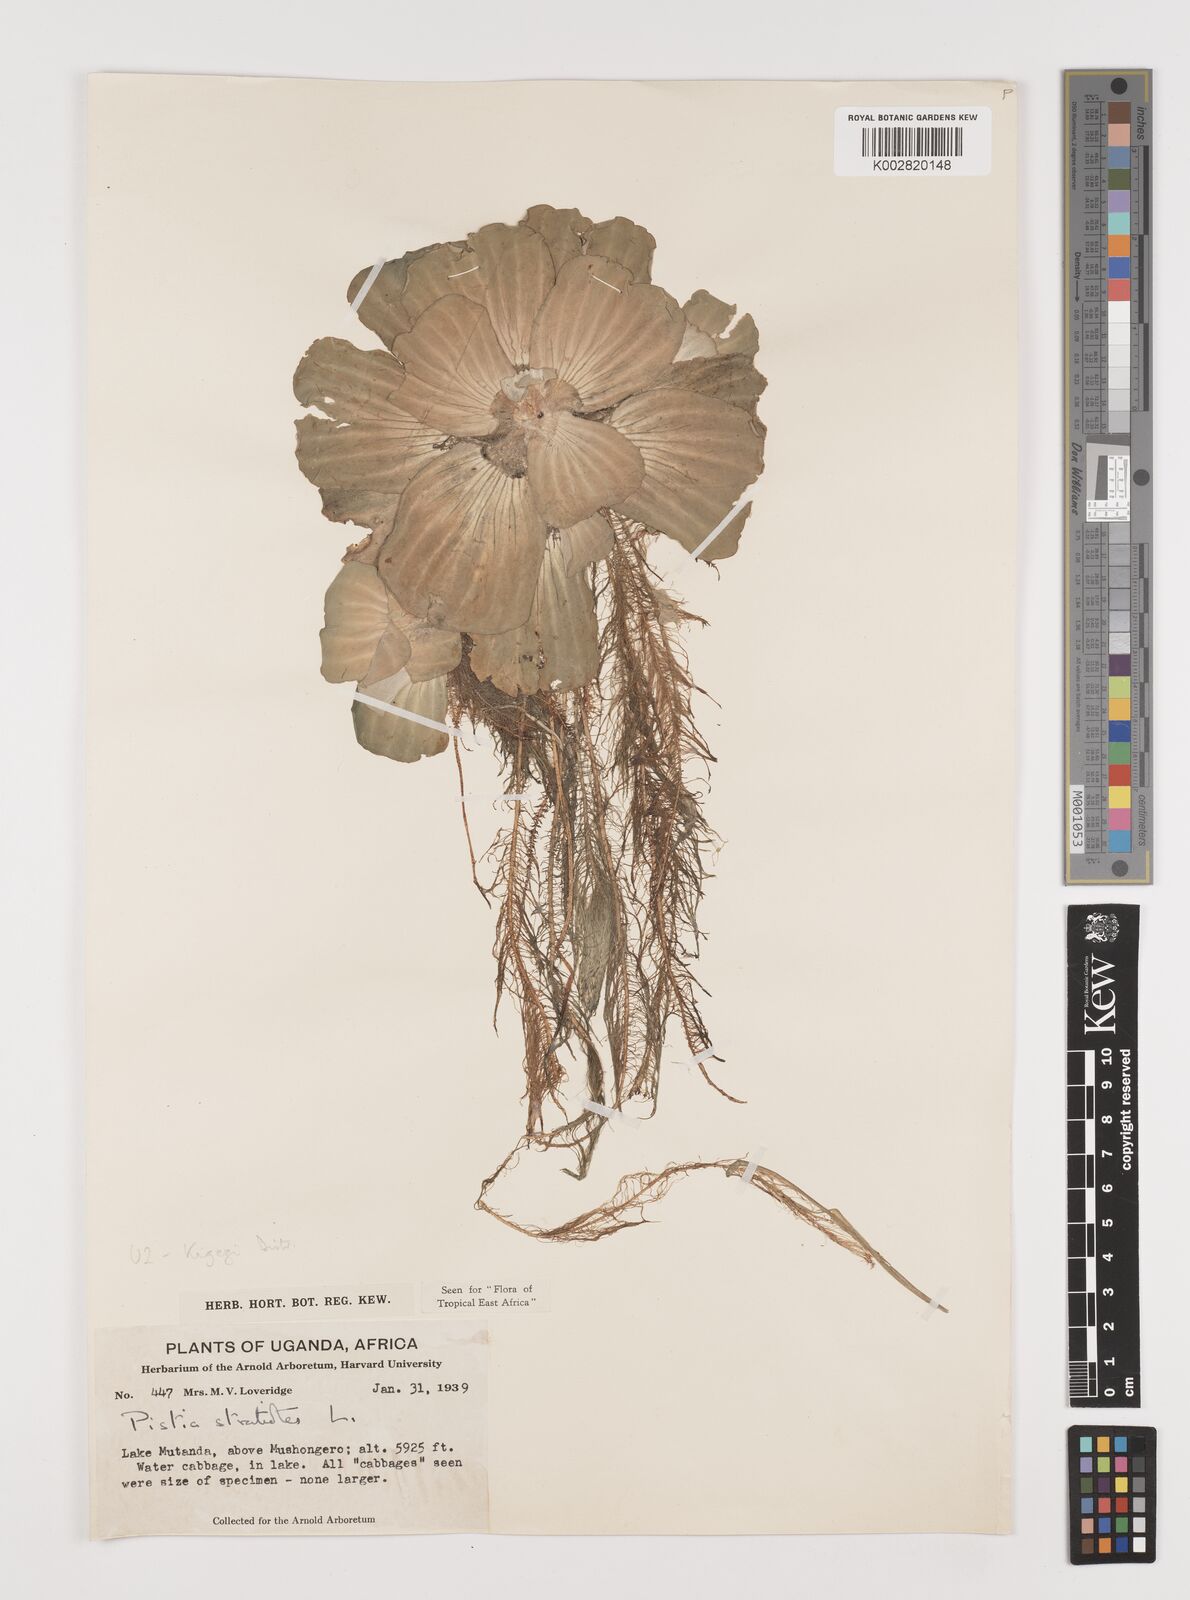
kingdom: Plantae
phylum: Tracheophyta
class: Liliopsida
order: Alismatales
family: Araceae
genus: Pistia
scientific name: Pistia stratiotes
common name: Water lettuce
